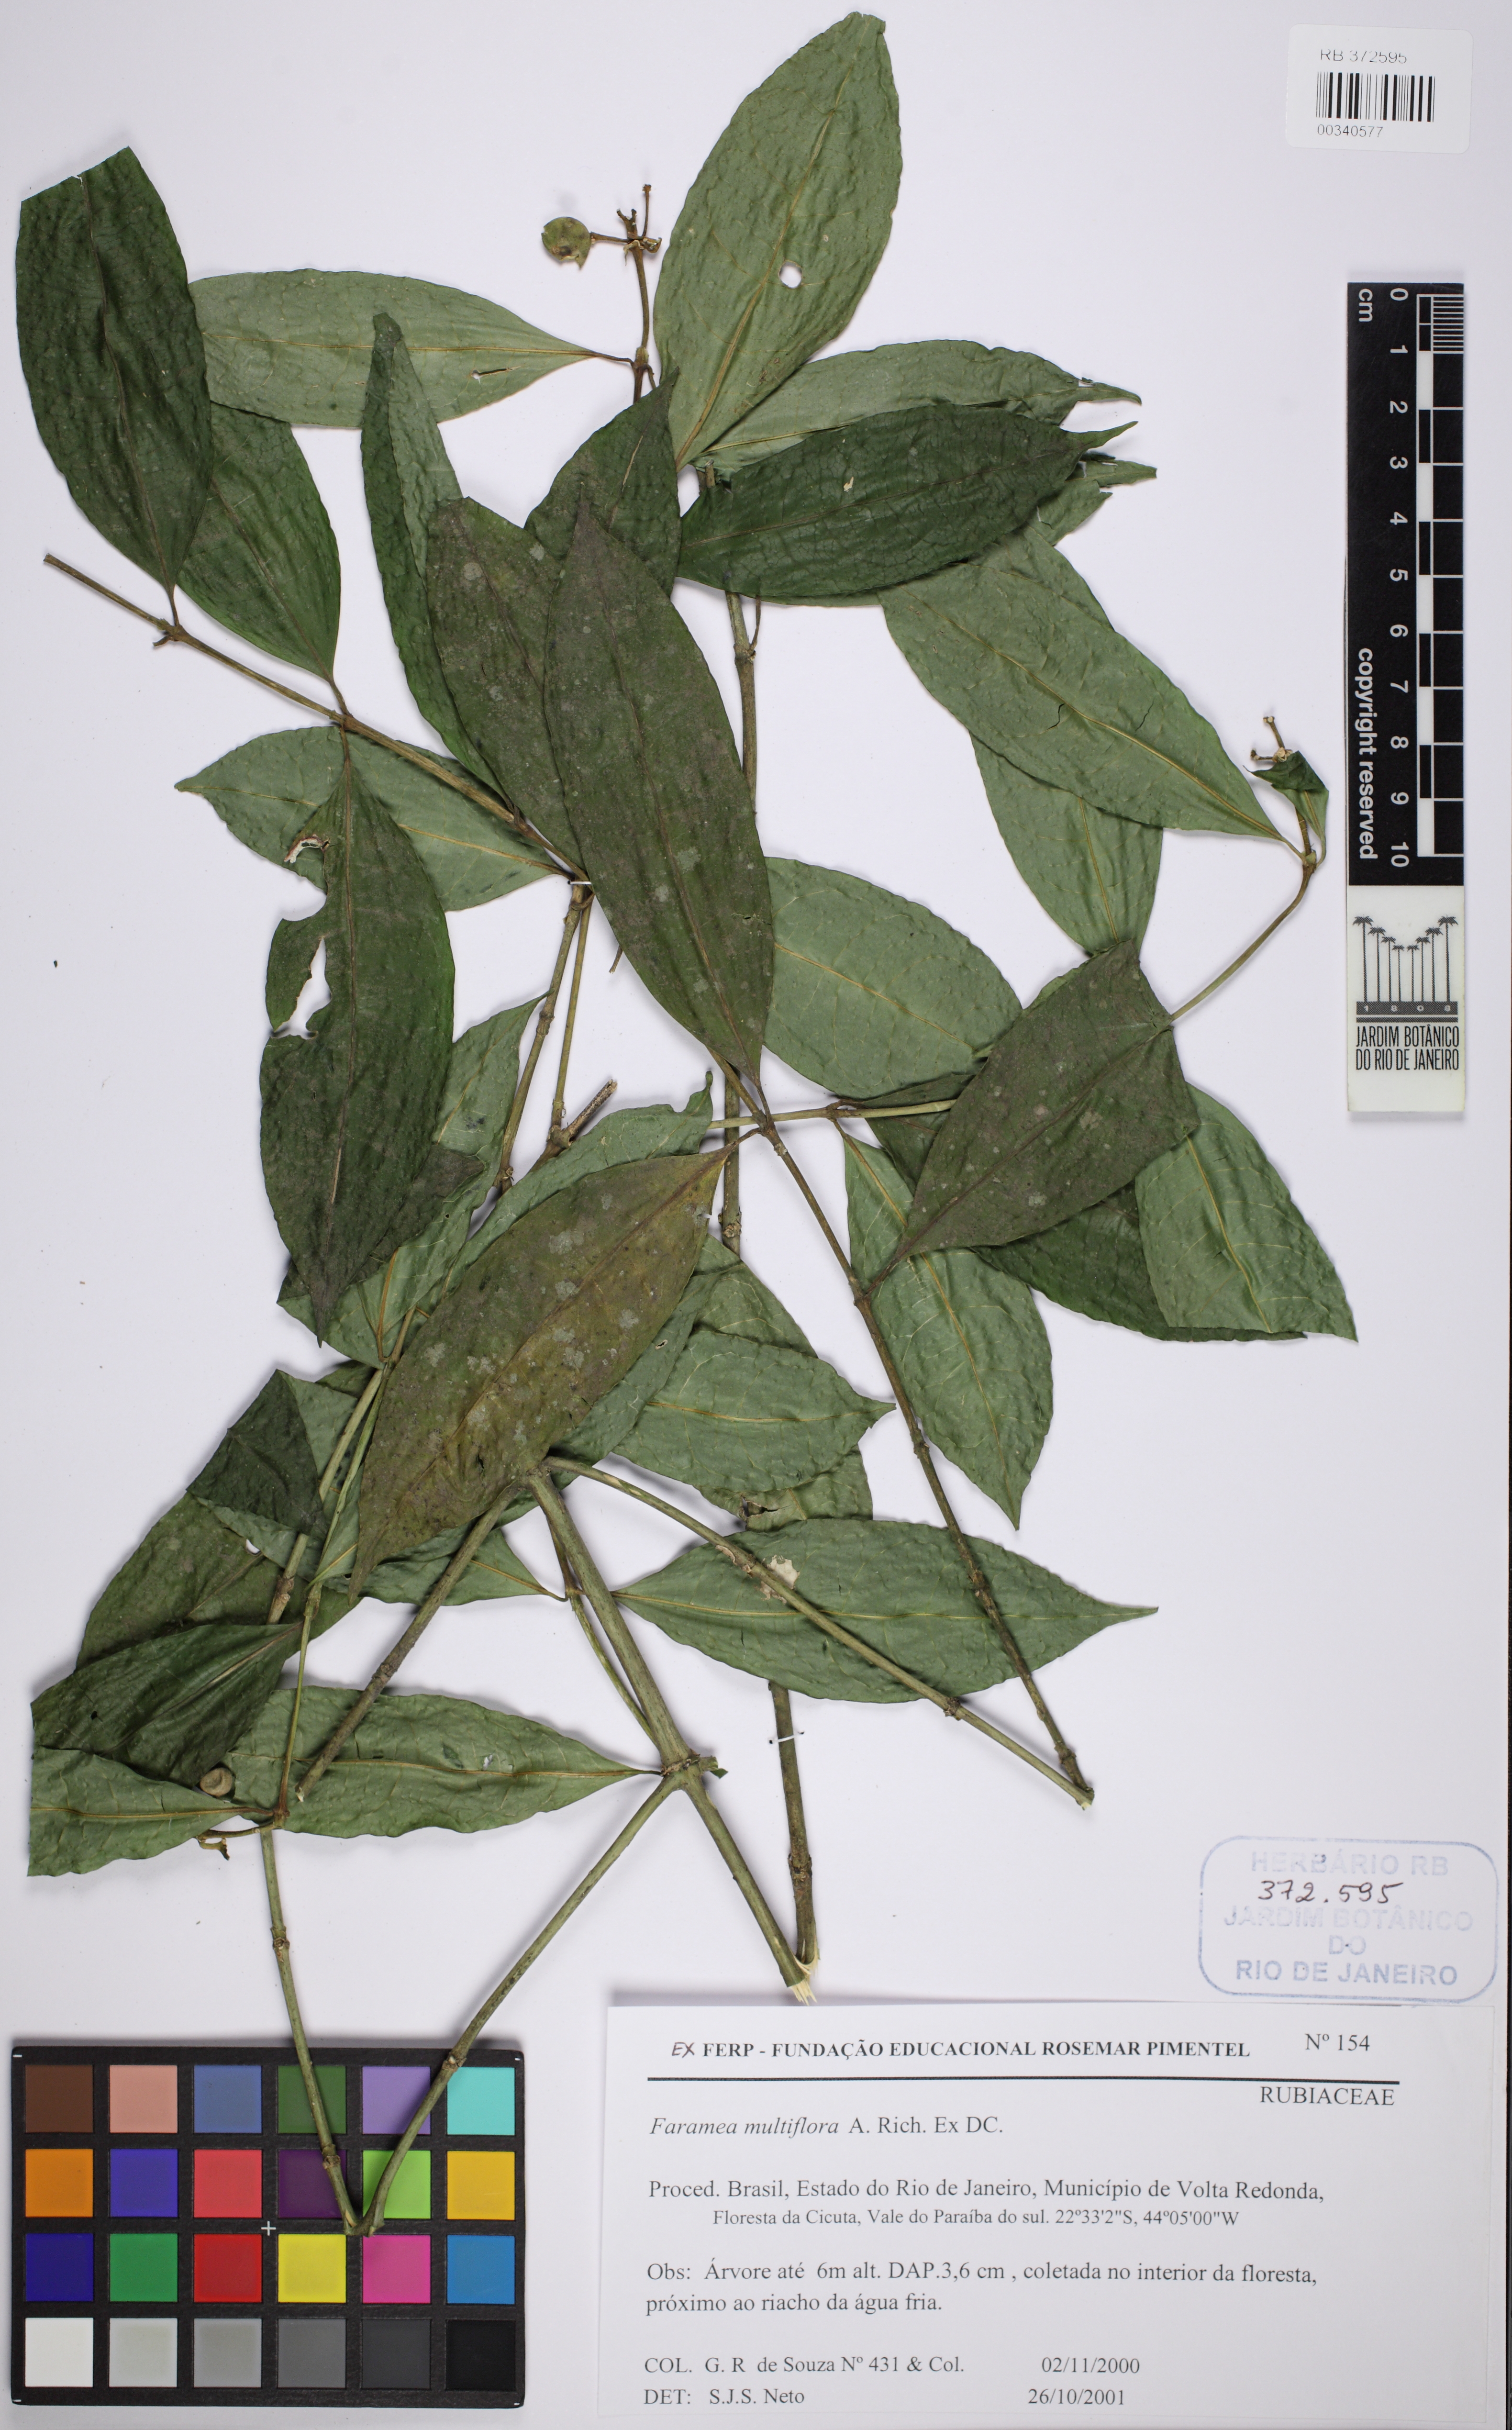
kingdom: Plantae
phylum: Tracheophyta
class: Magnoliopsida
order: Gentianales
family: Rubiaceae
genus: Faramea
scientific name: Faramea multiflora
